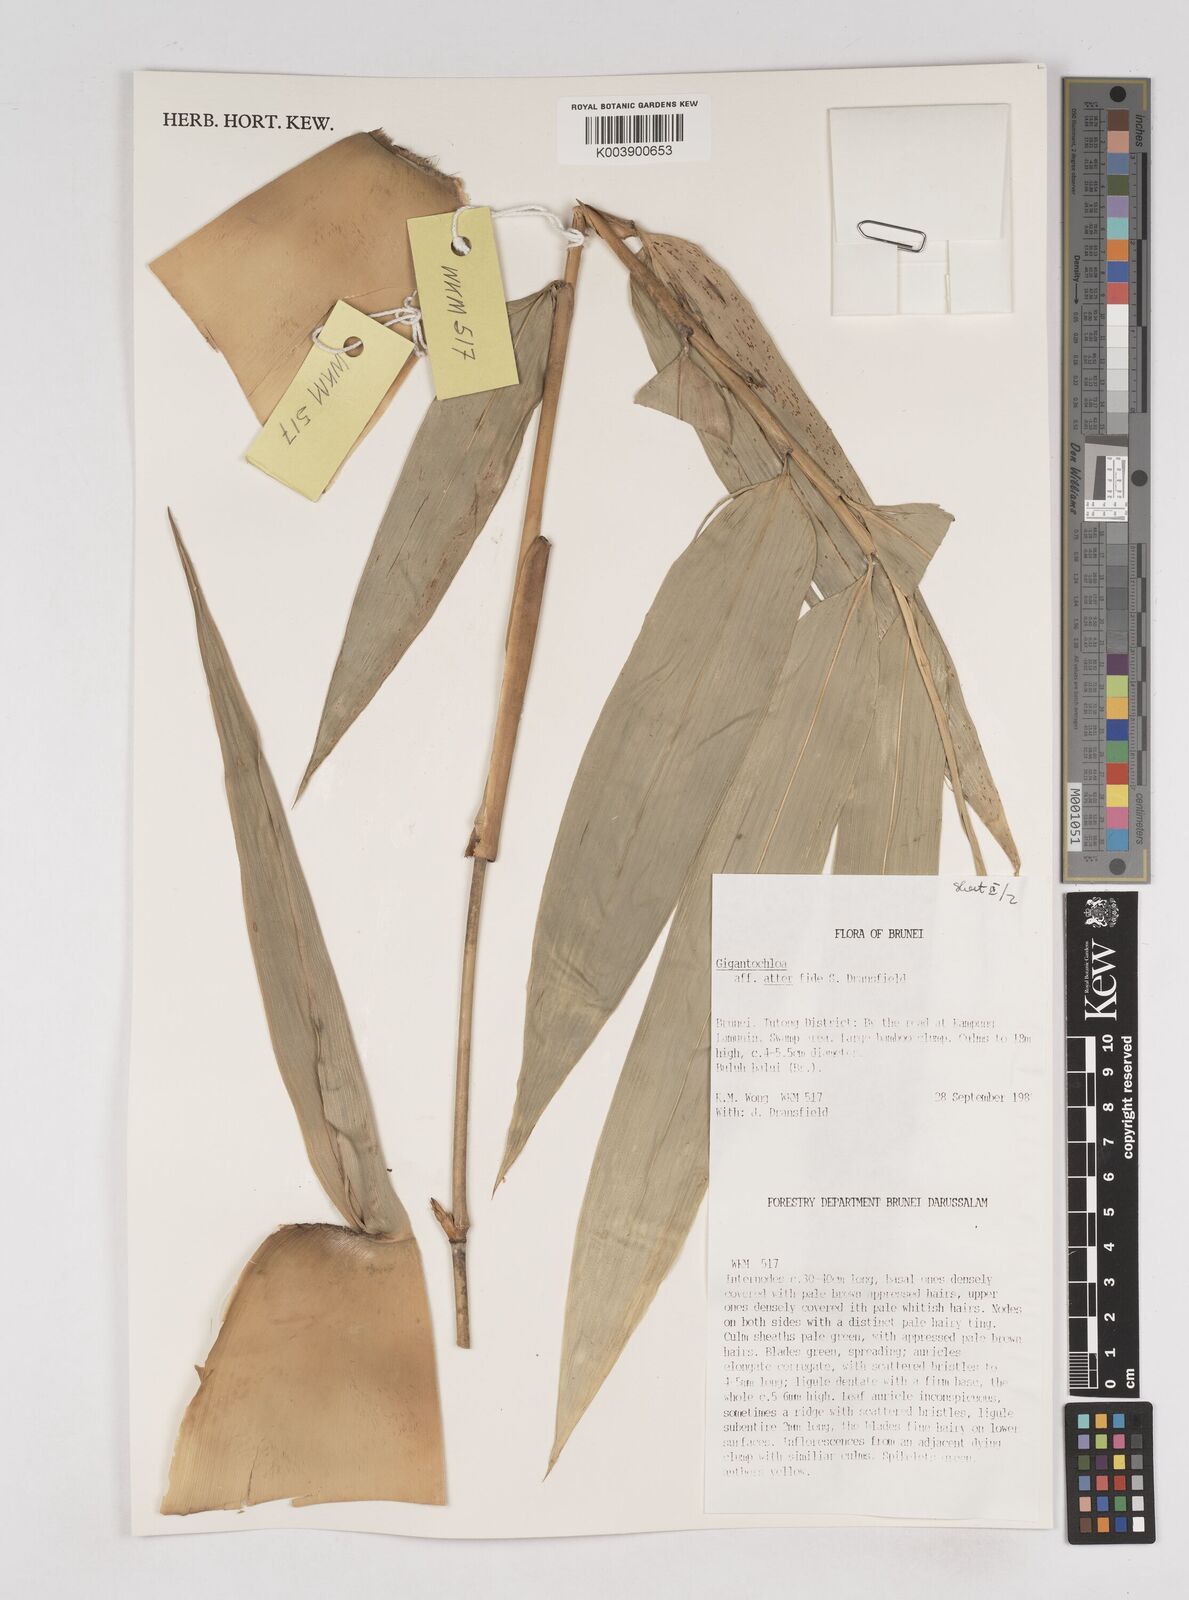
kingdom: Plantae
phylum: Tracheophyta
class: Liliopsida
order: Poales
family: Poaceae
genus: Gigantochloa
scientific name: Gigantochloa
